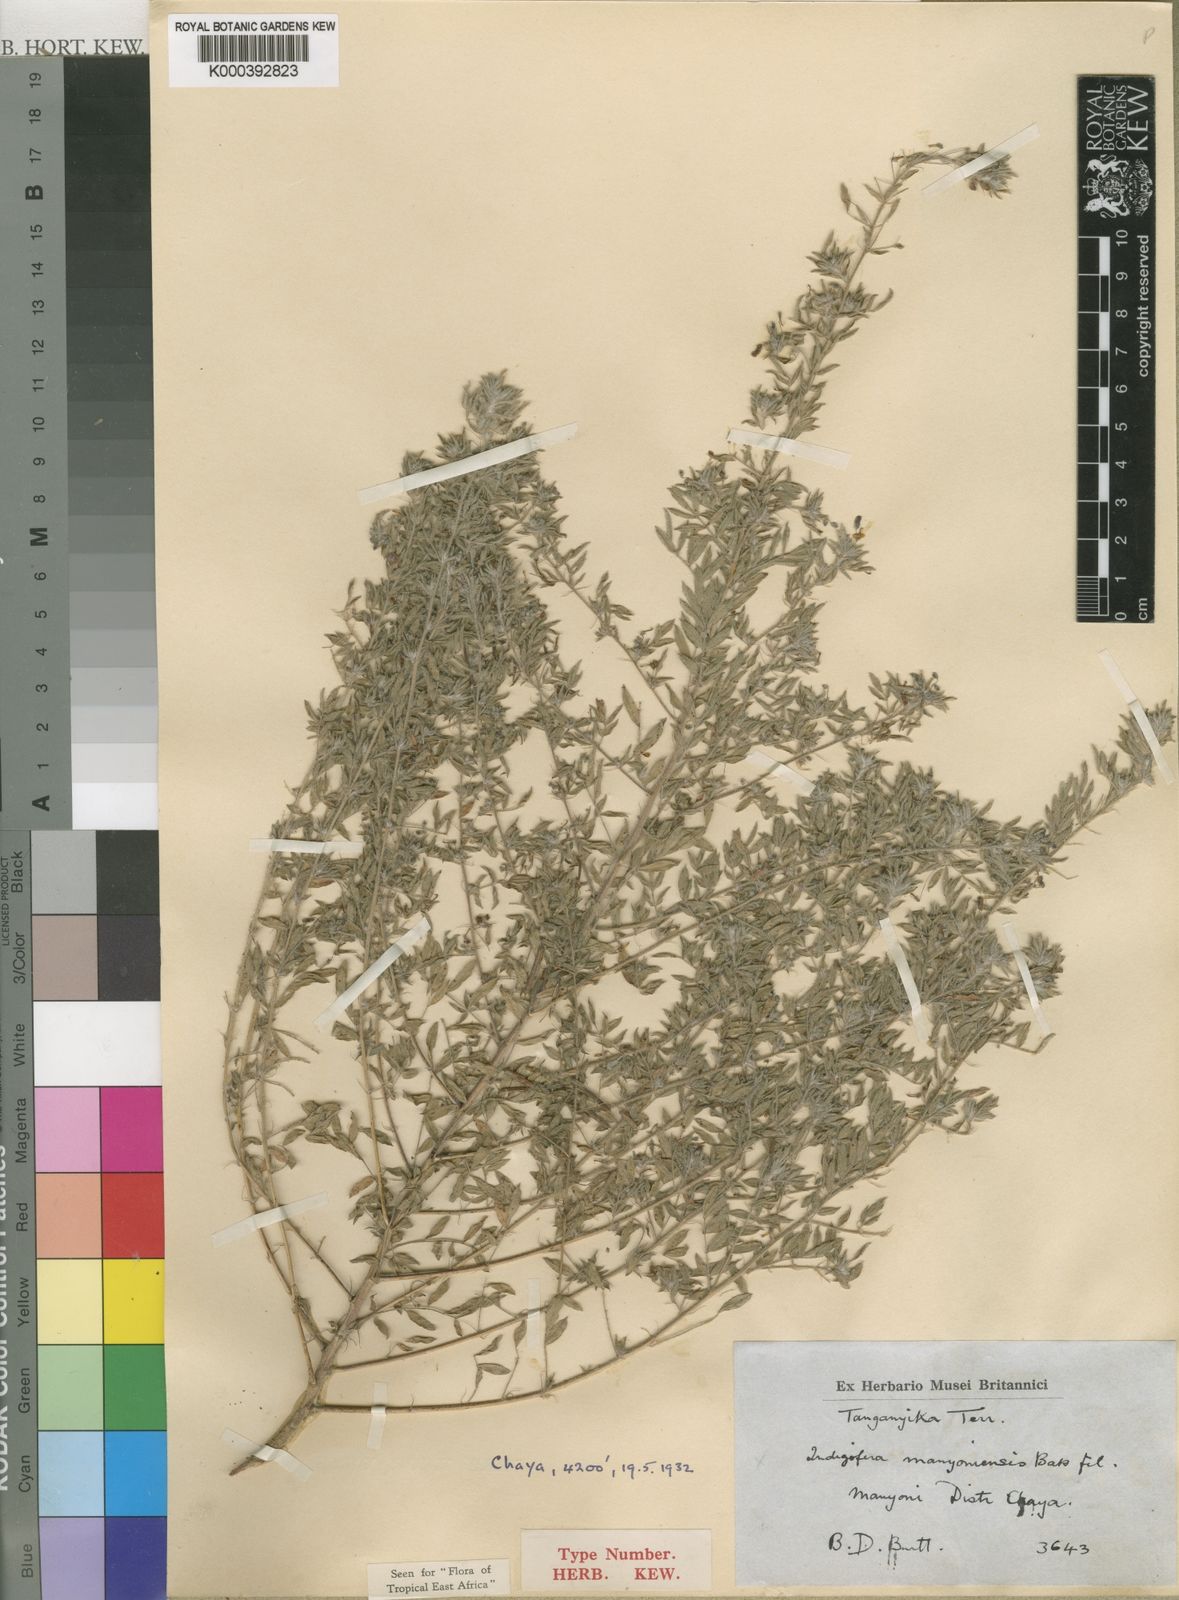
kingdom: Plantae
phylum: Tracheophyta
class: Magnoliopsida
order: Fabales
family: Fabaceae
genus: Indigofera
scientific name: Indigofera manyoniensis
